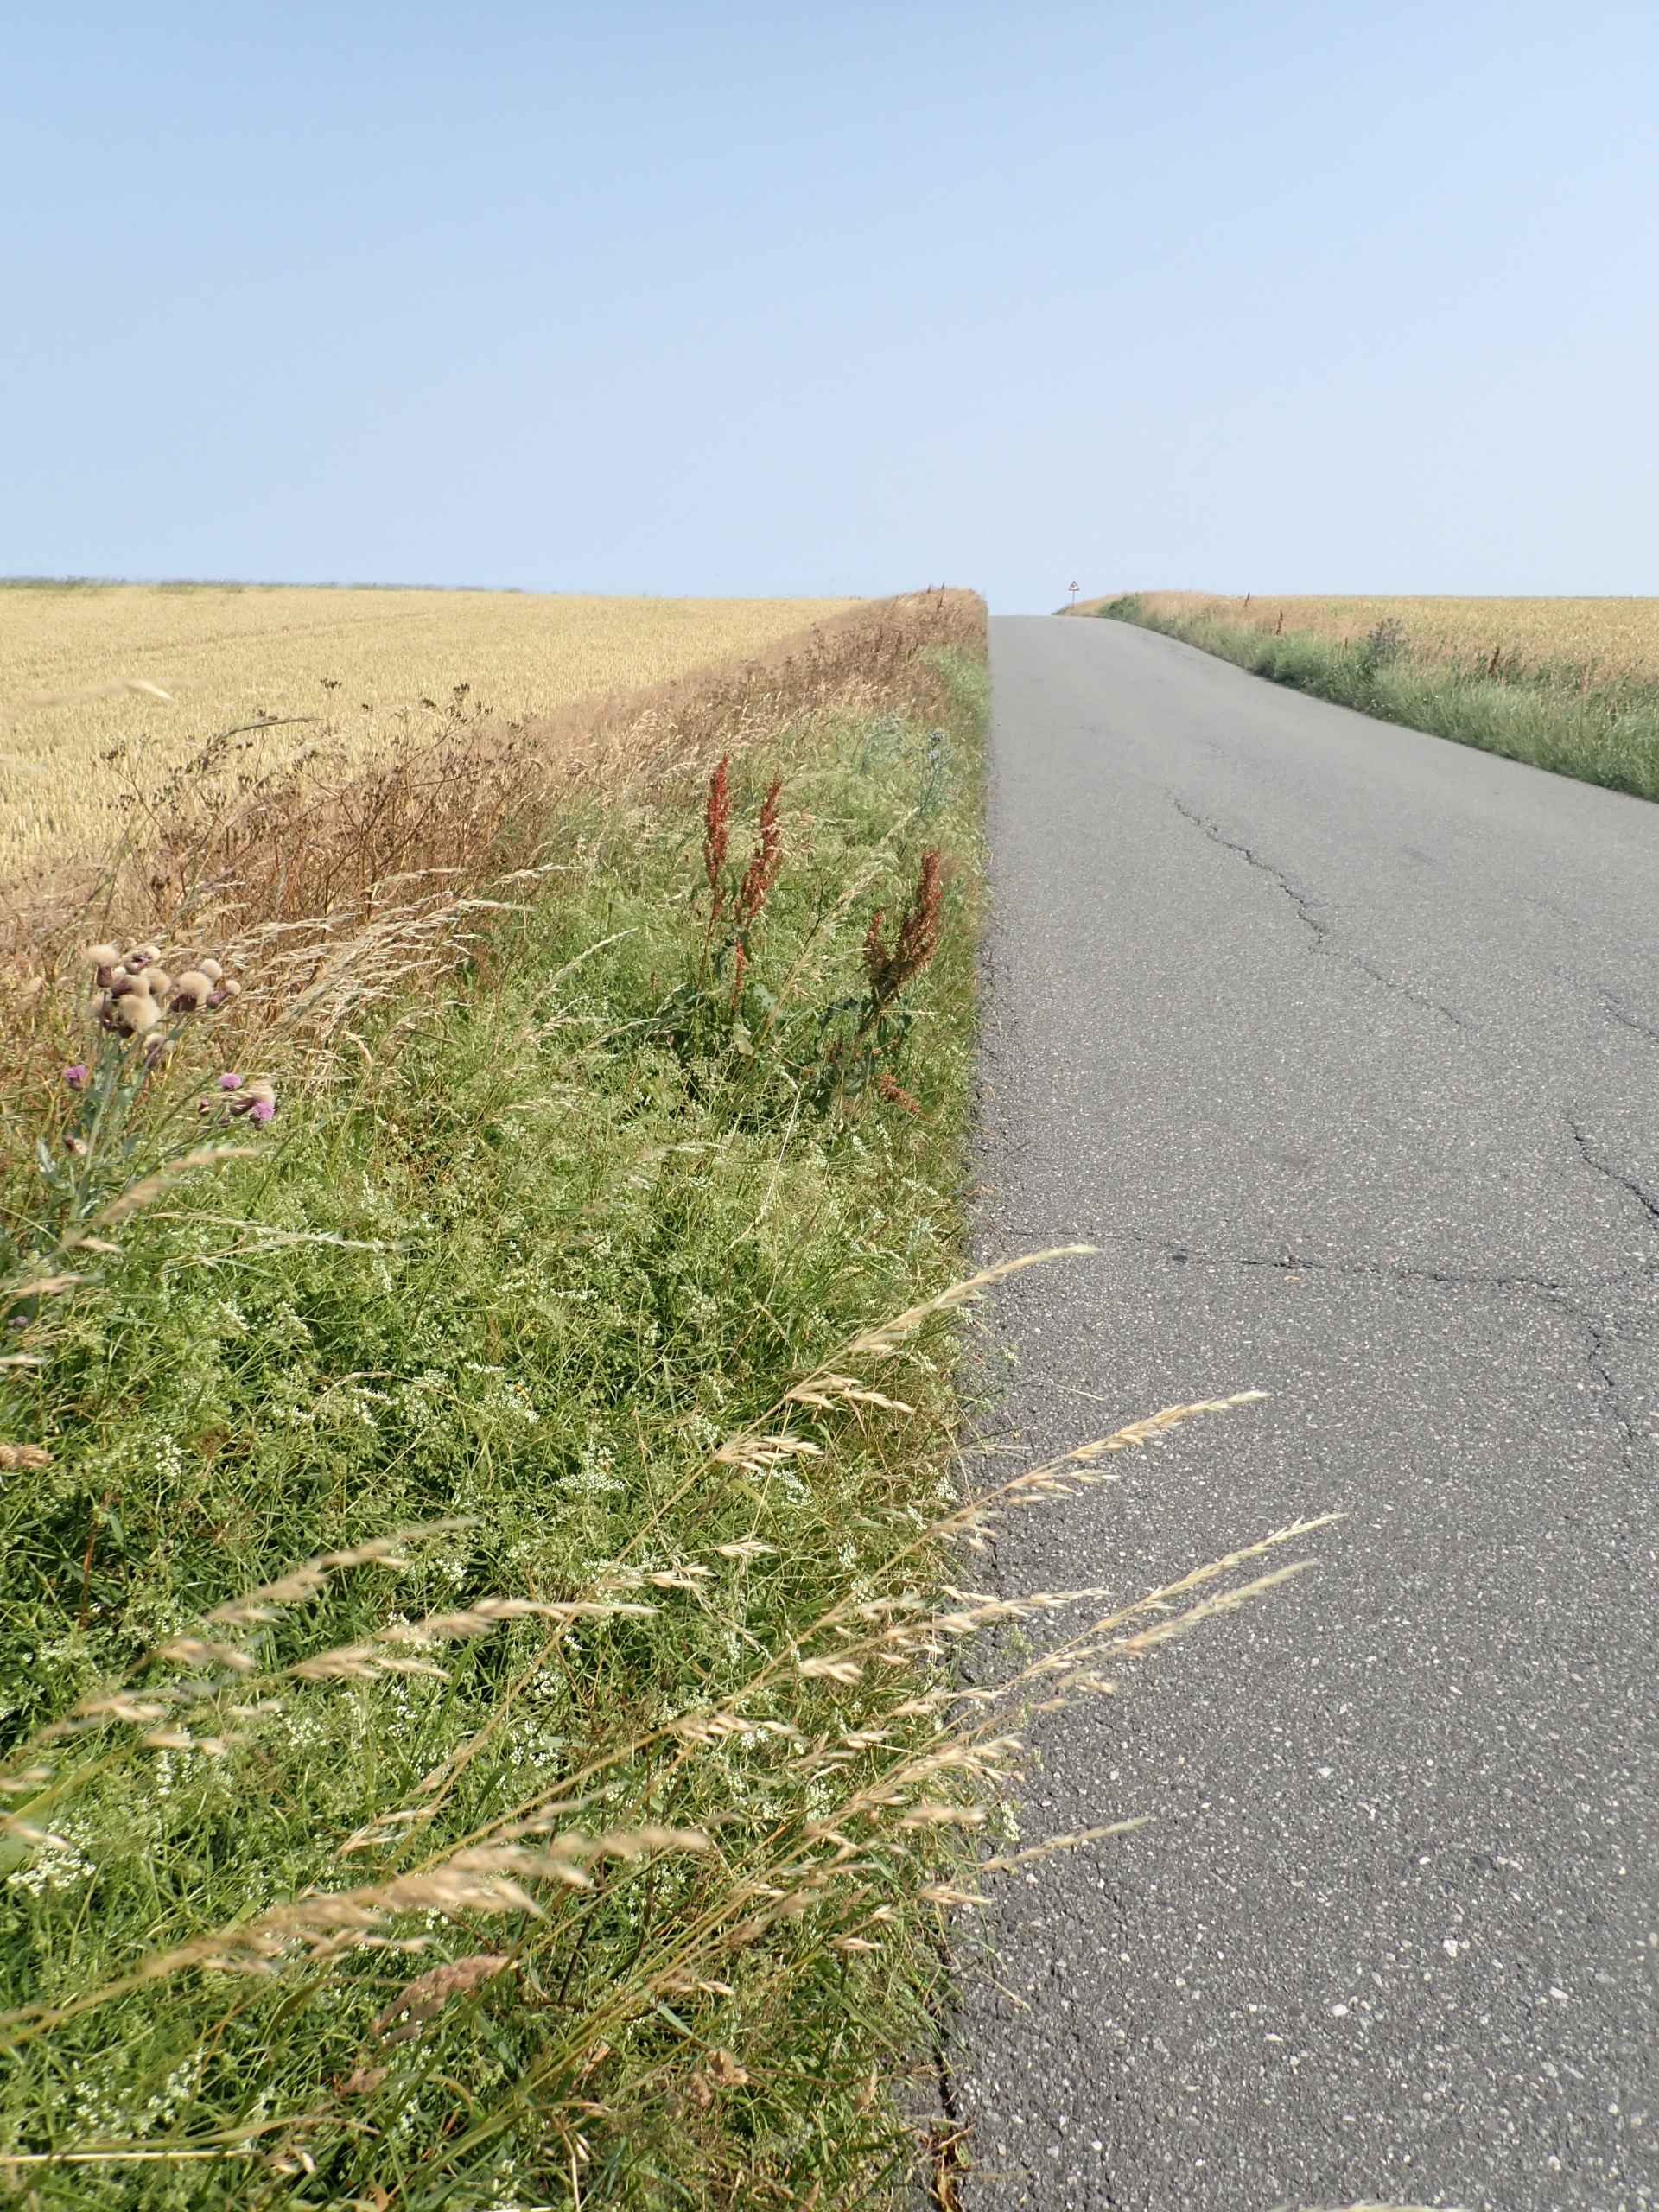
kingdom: Plantae
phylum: Tracheophyta
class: Magnoliopsida
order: Apiales
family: Apiaceae
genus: Falcaria
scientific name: Falcaria vulgaris
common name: Seglblad
